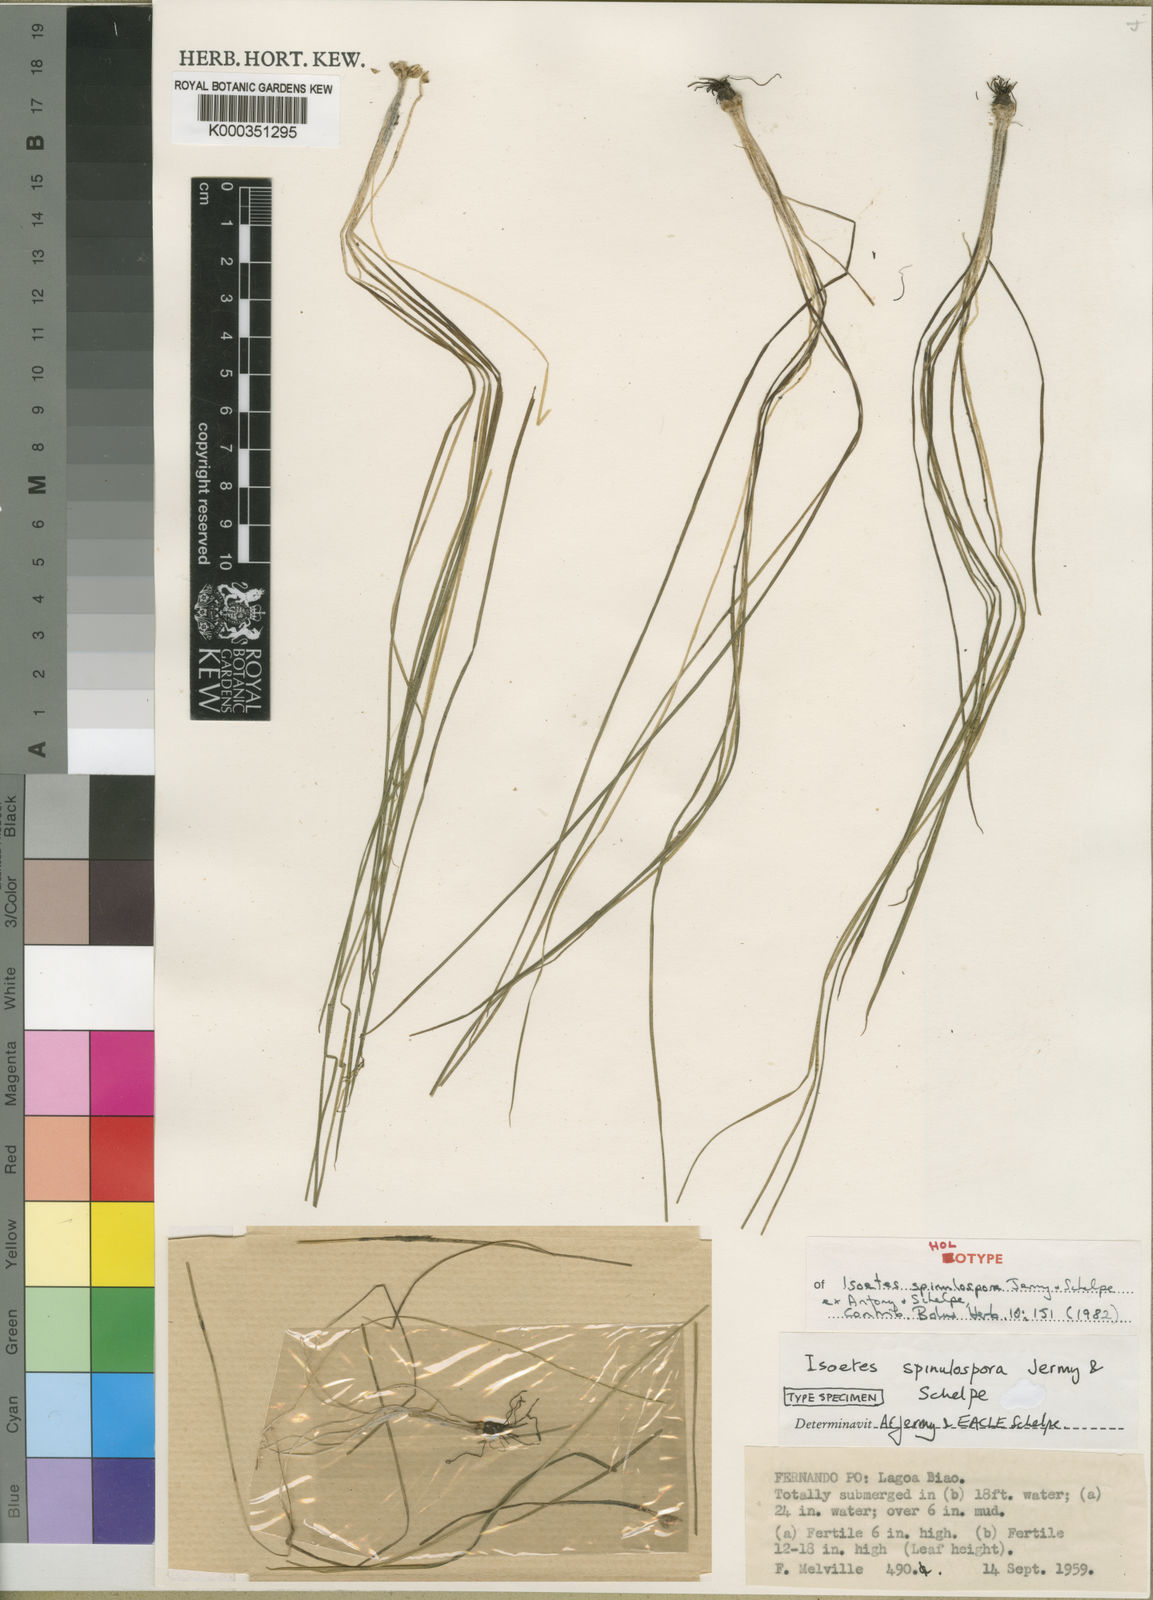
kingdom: Plantae
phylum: Tracheophyta
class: Lycopodiopsida
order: Isoetales
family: Isoetaceae
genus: Isoetes
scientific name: Isoetes spinulospora
